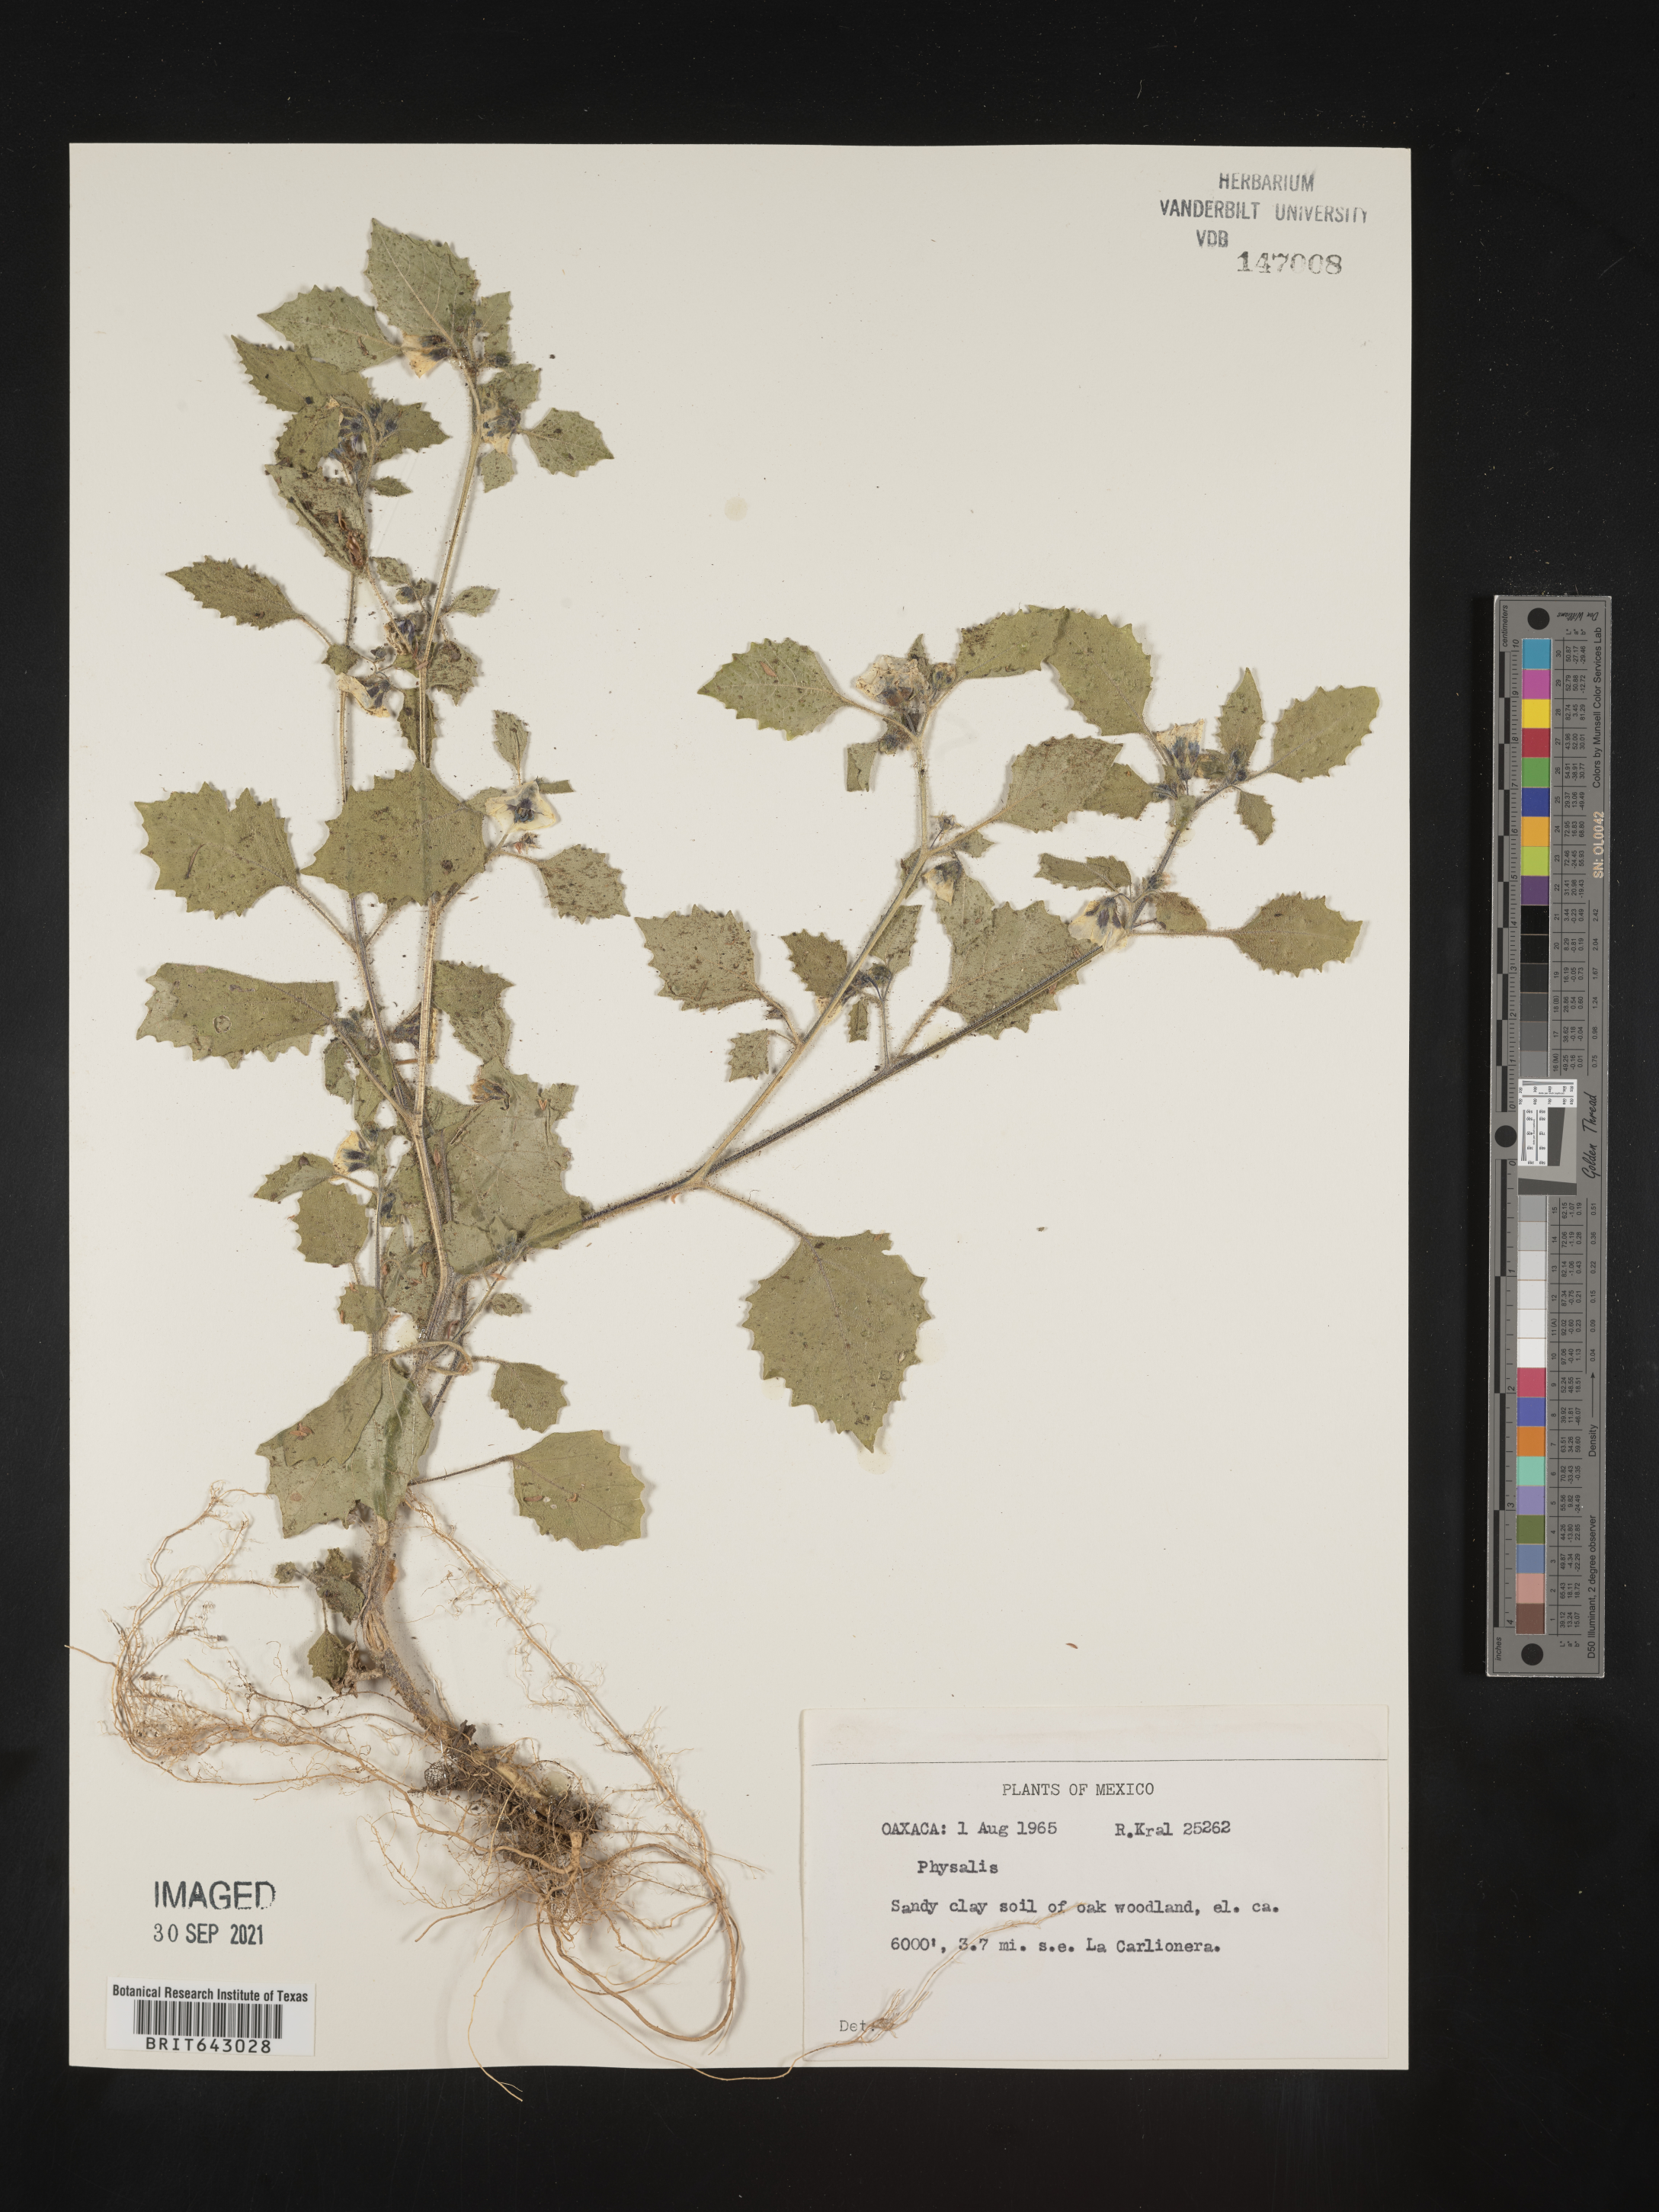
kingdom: Plantae
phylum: Tracheophyta
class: Magnoliopsida
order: Solanales
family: Solanaceae
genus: Physalis
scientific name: Physalis
